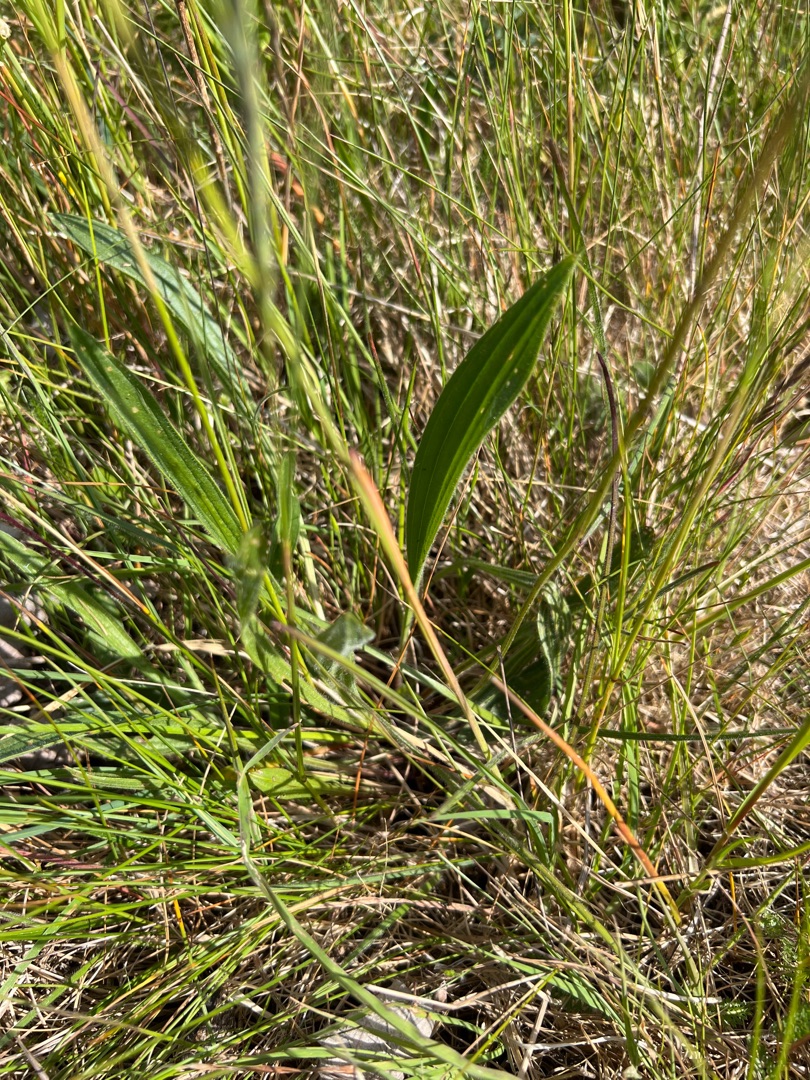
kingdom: Plantae
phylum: Tracheophyta
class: Magnoliopsida
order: Lamiales
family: Plantaginaceae
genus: Plantago
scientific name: Plantago lanceolata
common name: Lancet-vejbred
